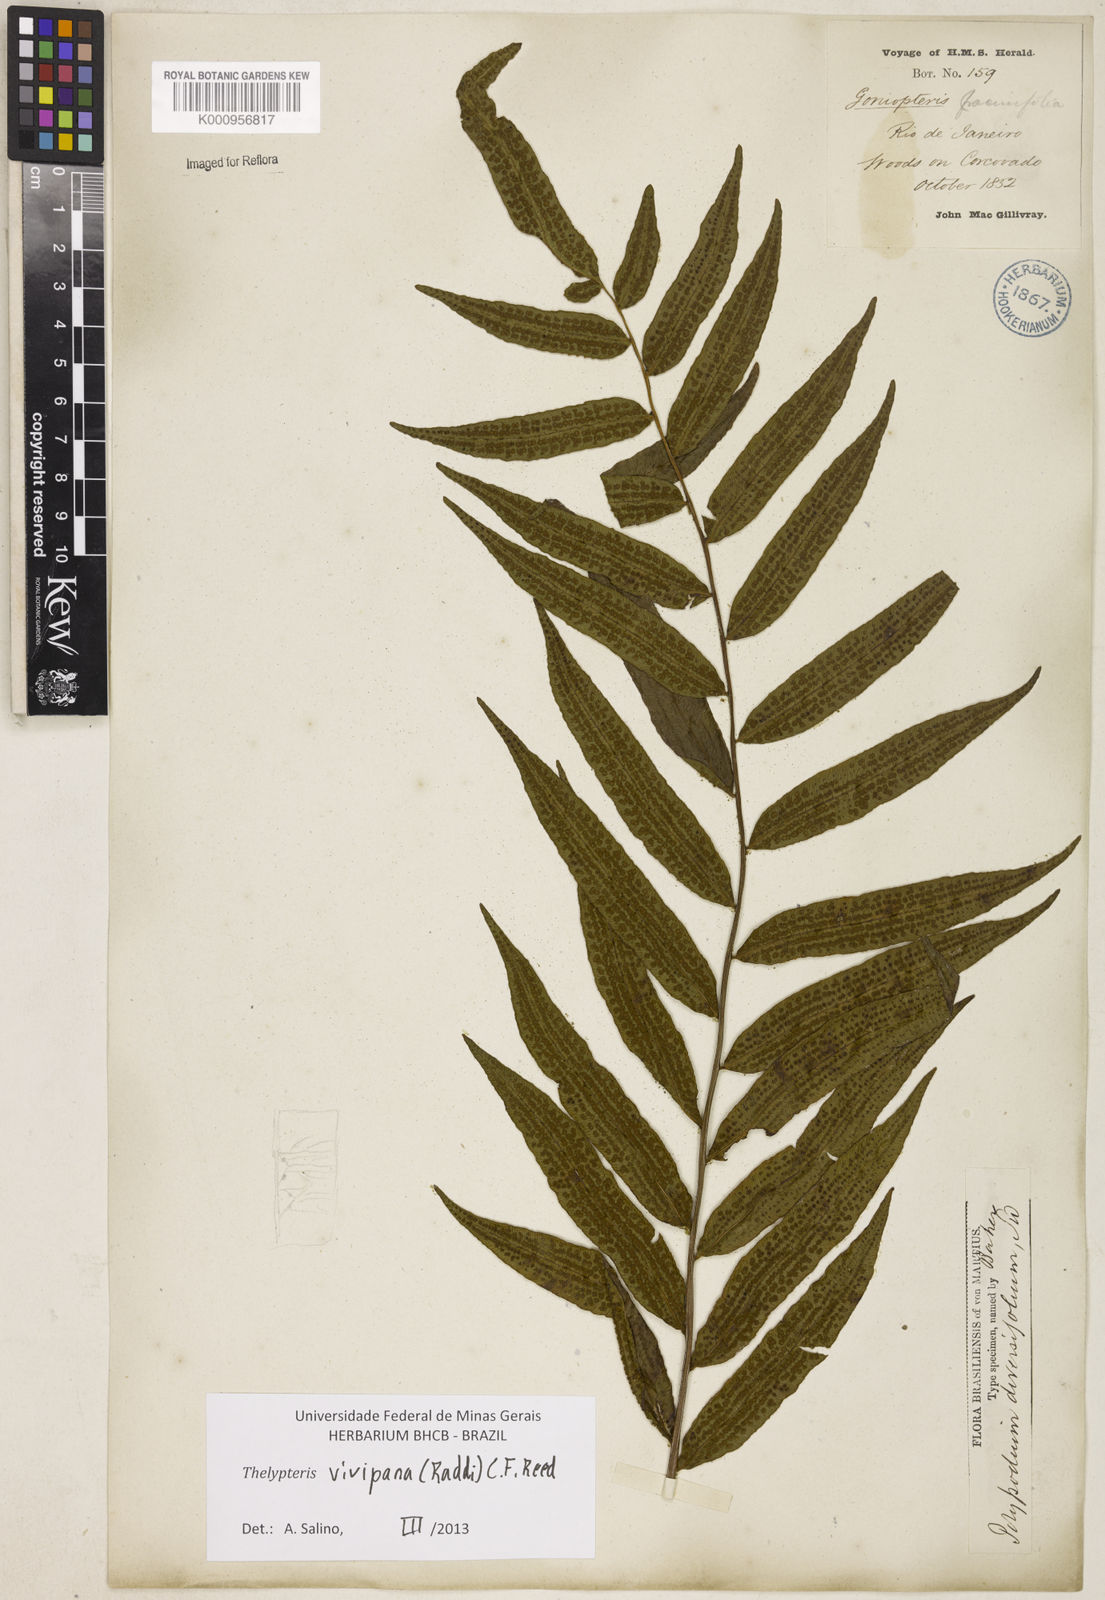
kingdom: Plantae
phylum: Tracheophyta
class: Polypodiopsida
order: Polypodiales
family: Thelypteridaceae
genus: Goniopteris
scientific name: Goniopteris vivipara
